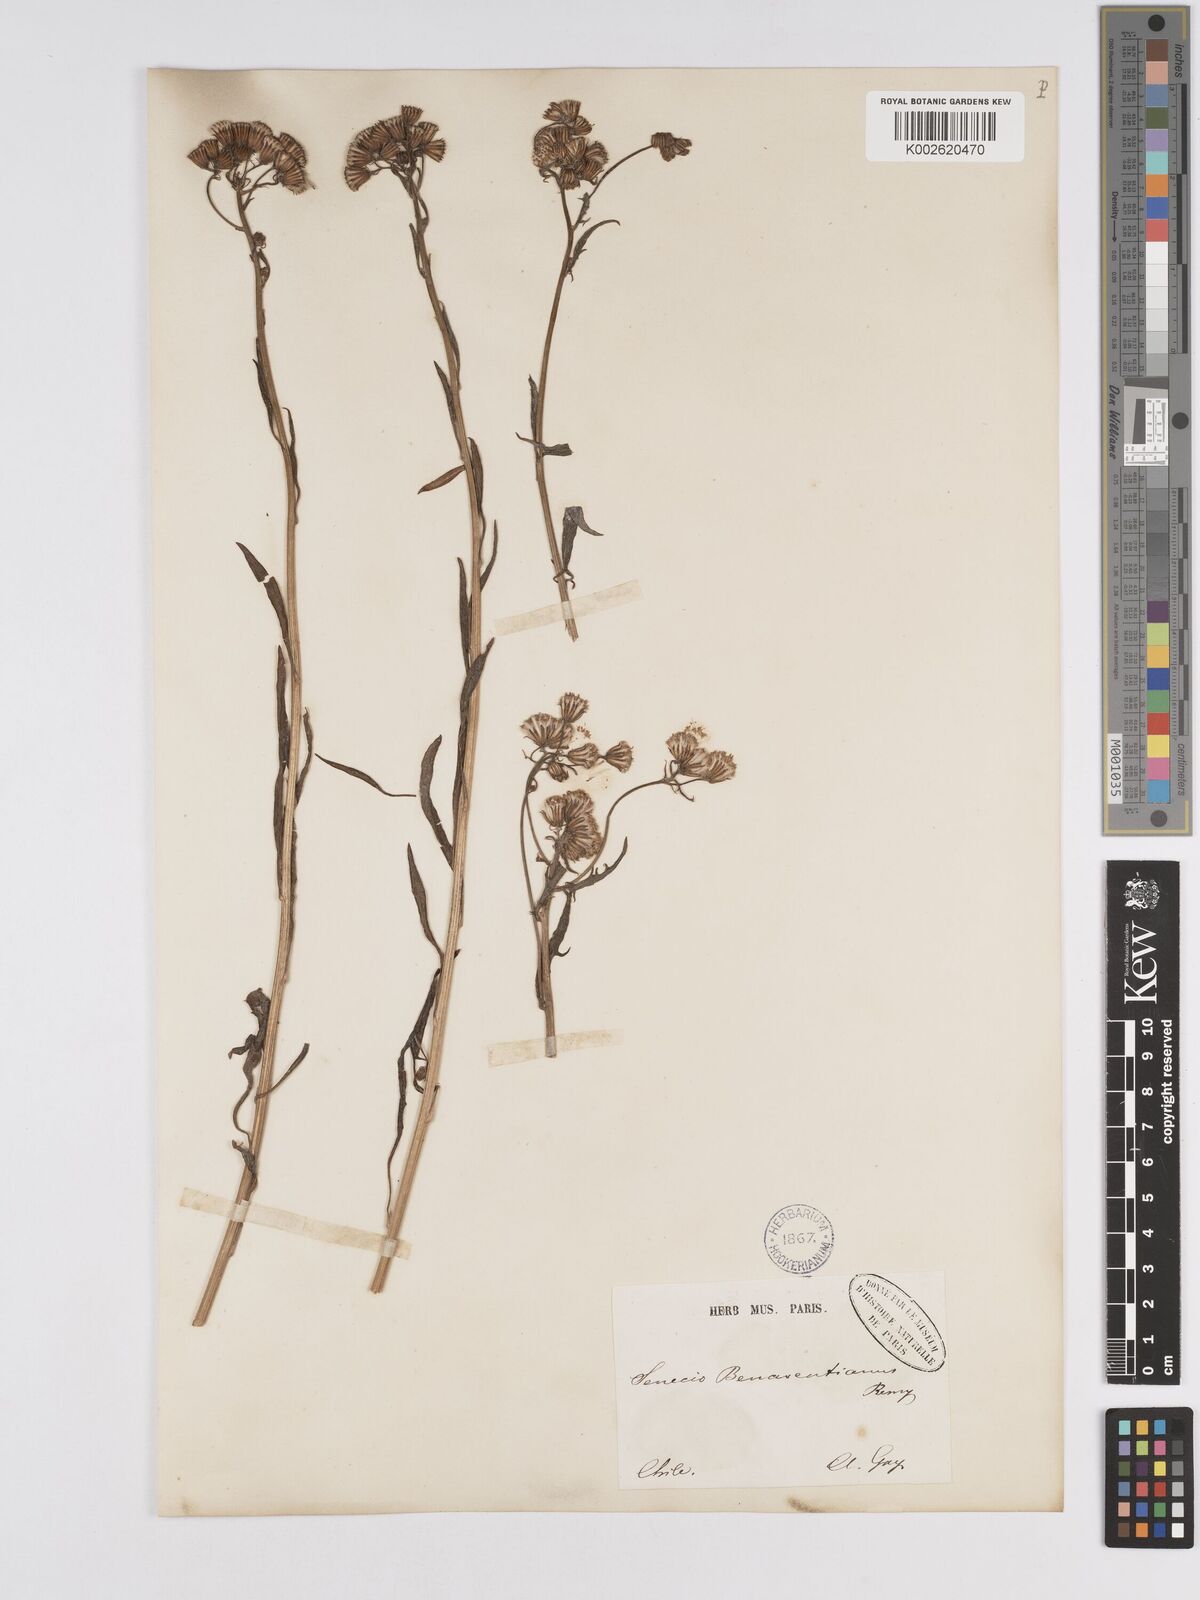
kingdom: Plantae
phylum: Tracheophyta
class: Magnoliopsida
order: Asterales
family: Asteraceae
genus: Senecio
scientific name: Senecio benaventianus
